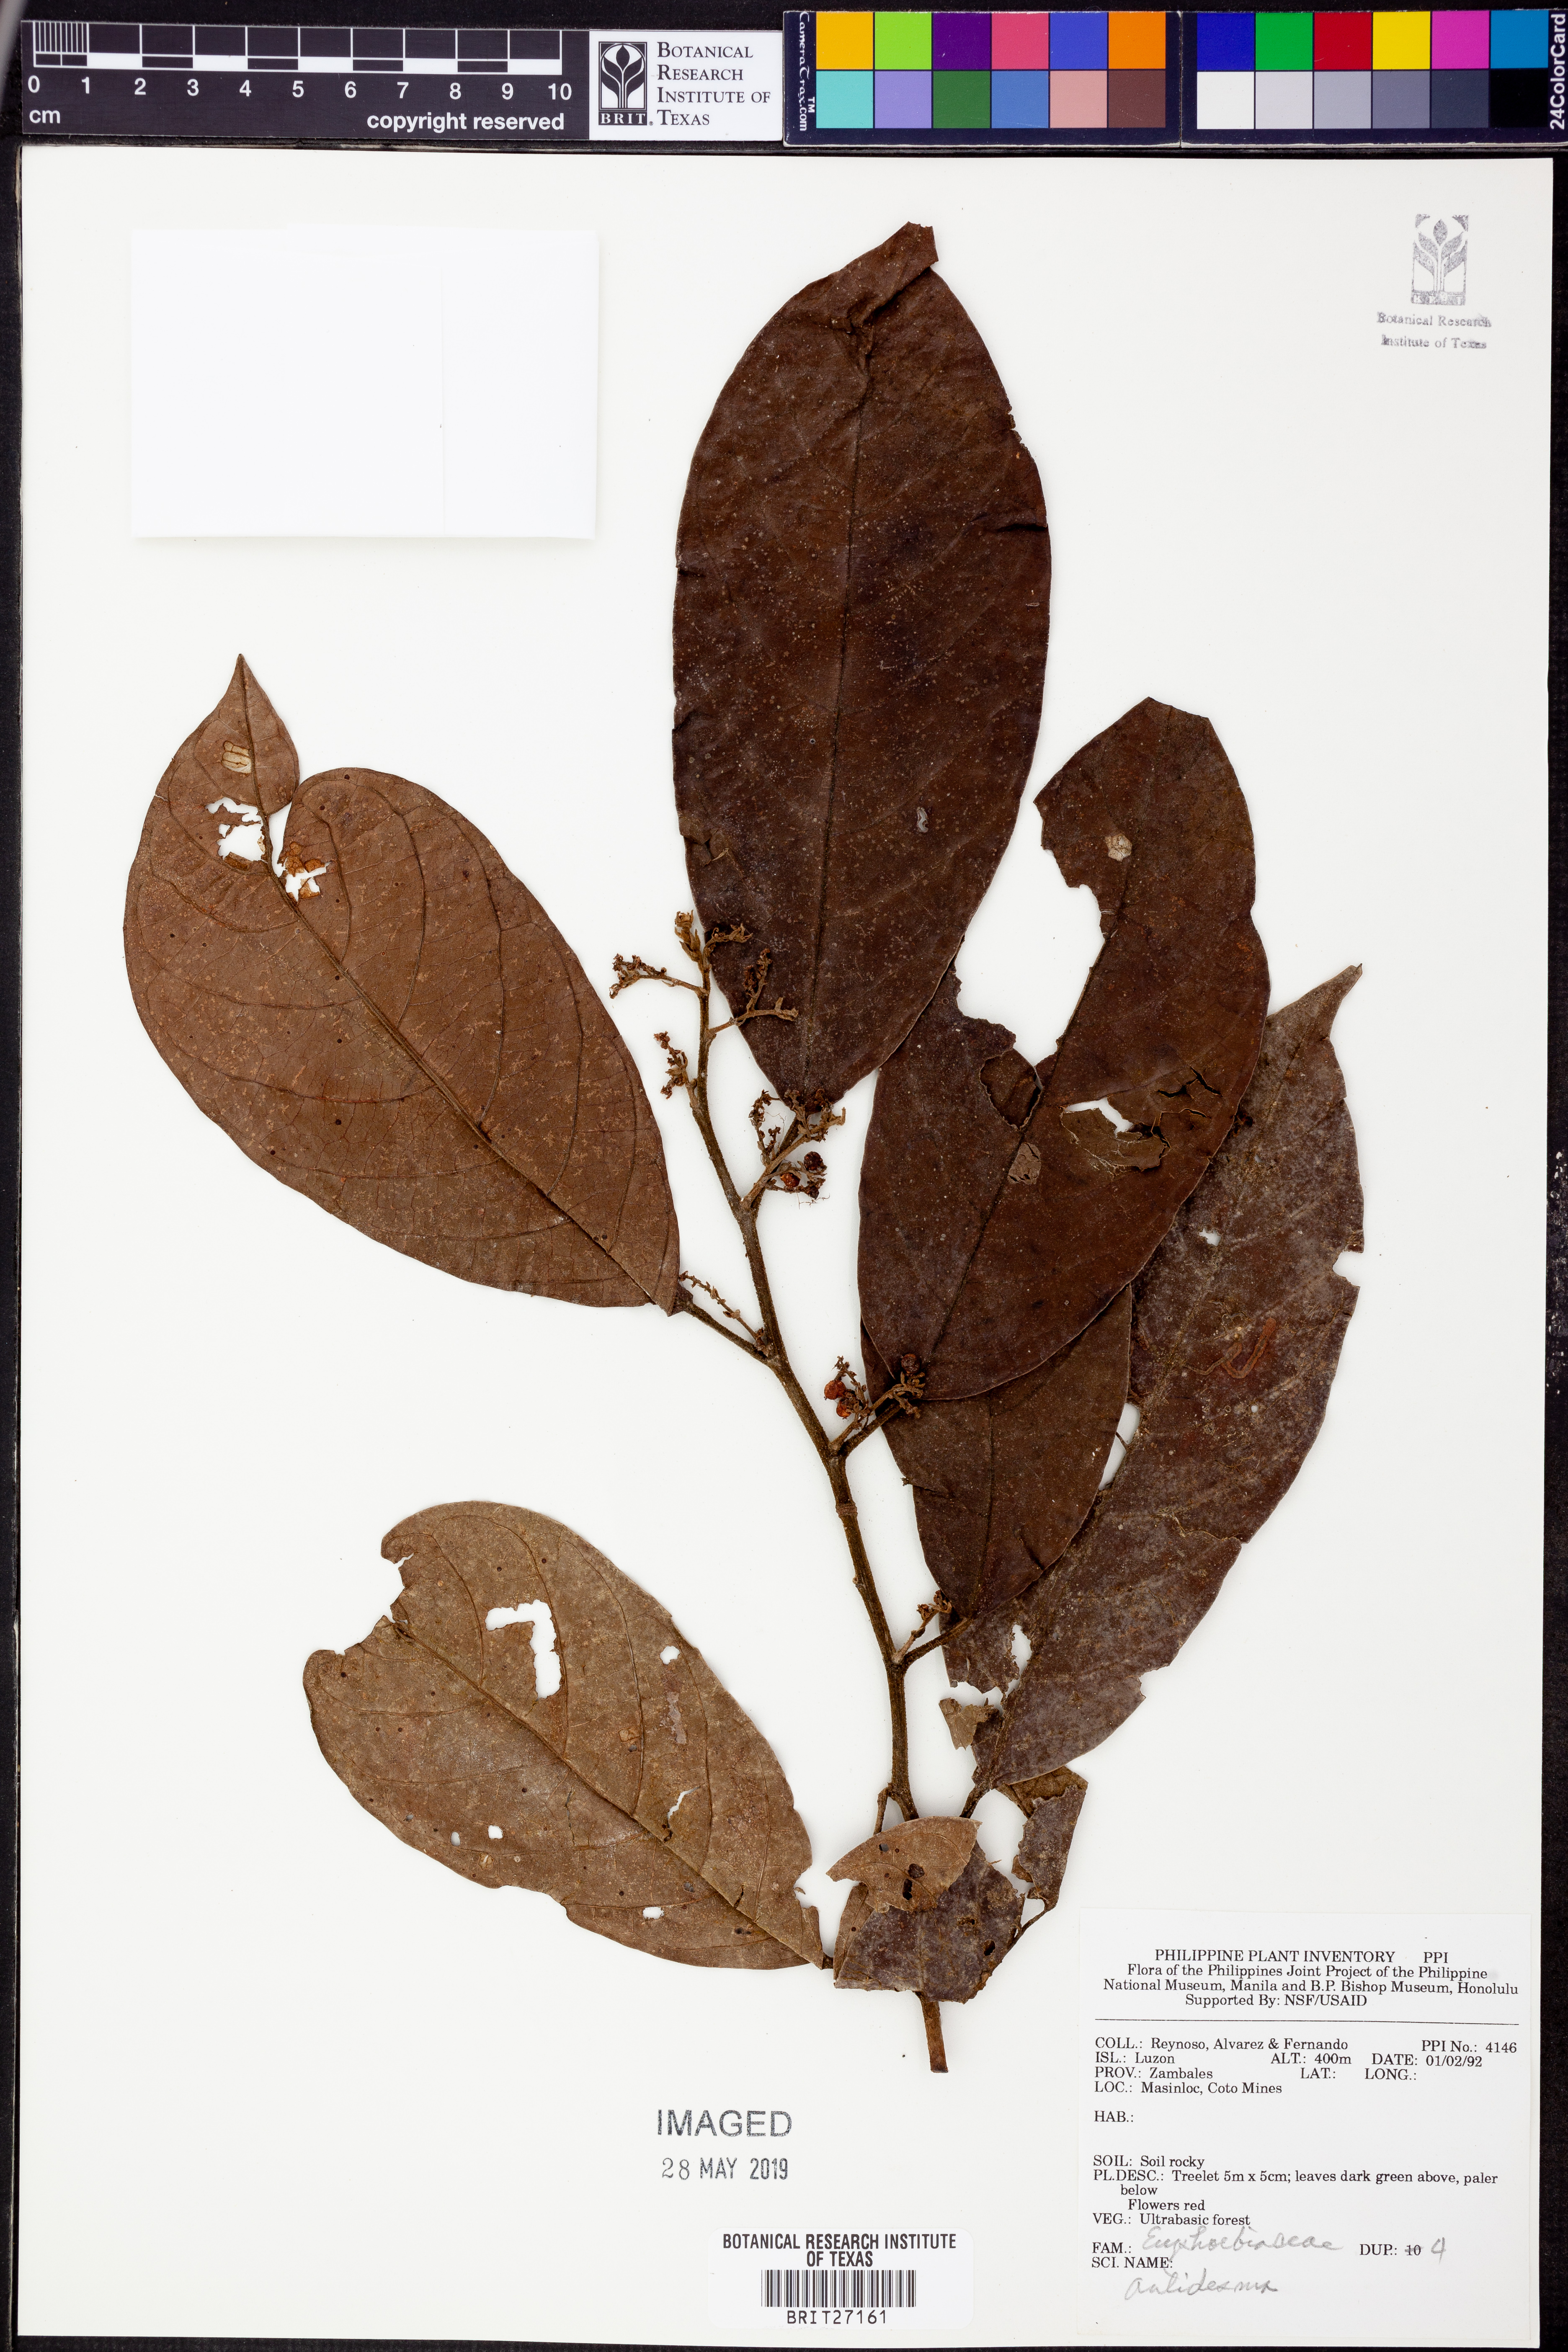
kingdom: Plantae
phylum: Tracheophyta
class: Magnoliopsida
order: Malpighiales
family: Phyllanthaceae
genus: Antidesma
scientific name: Antidesma
